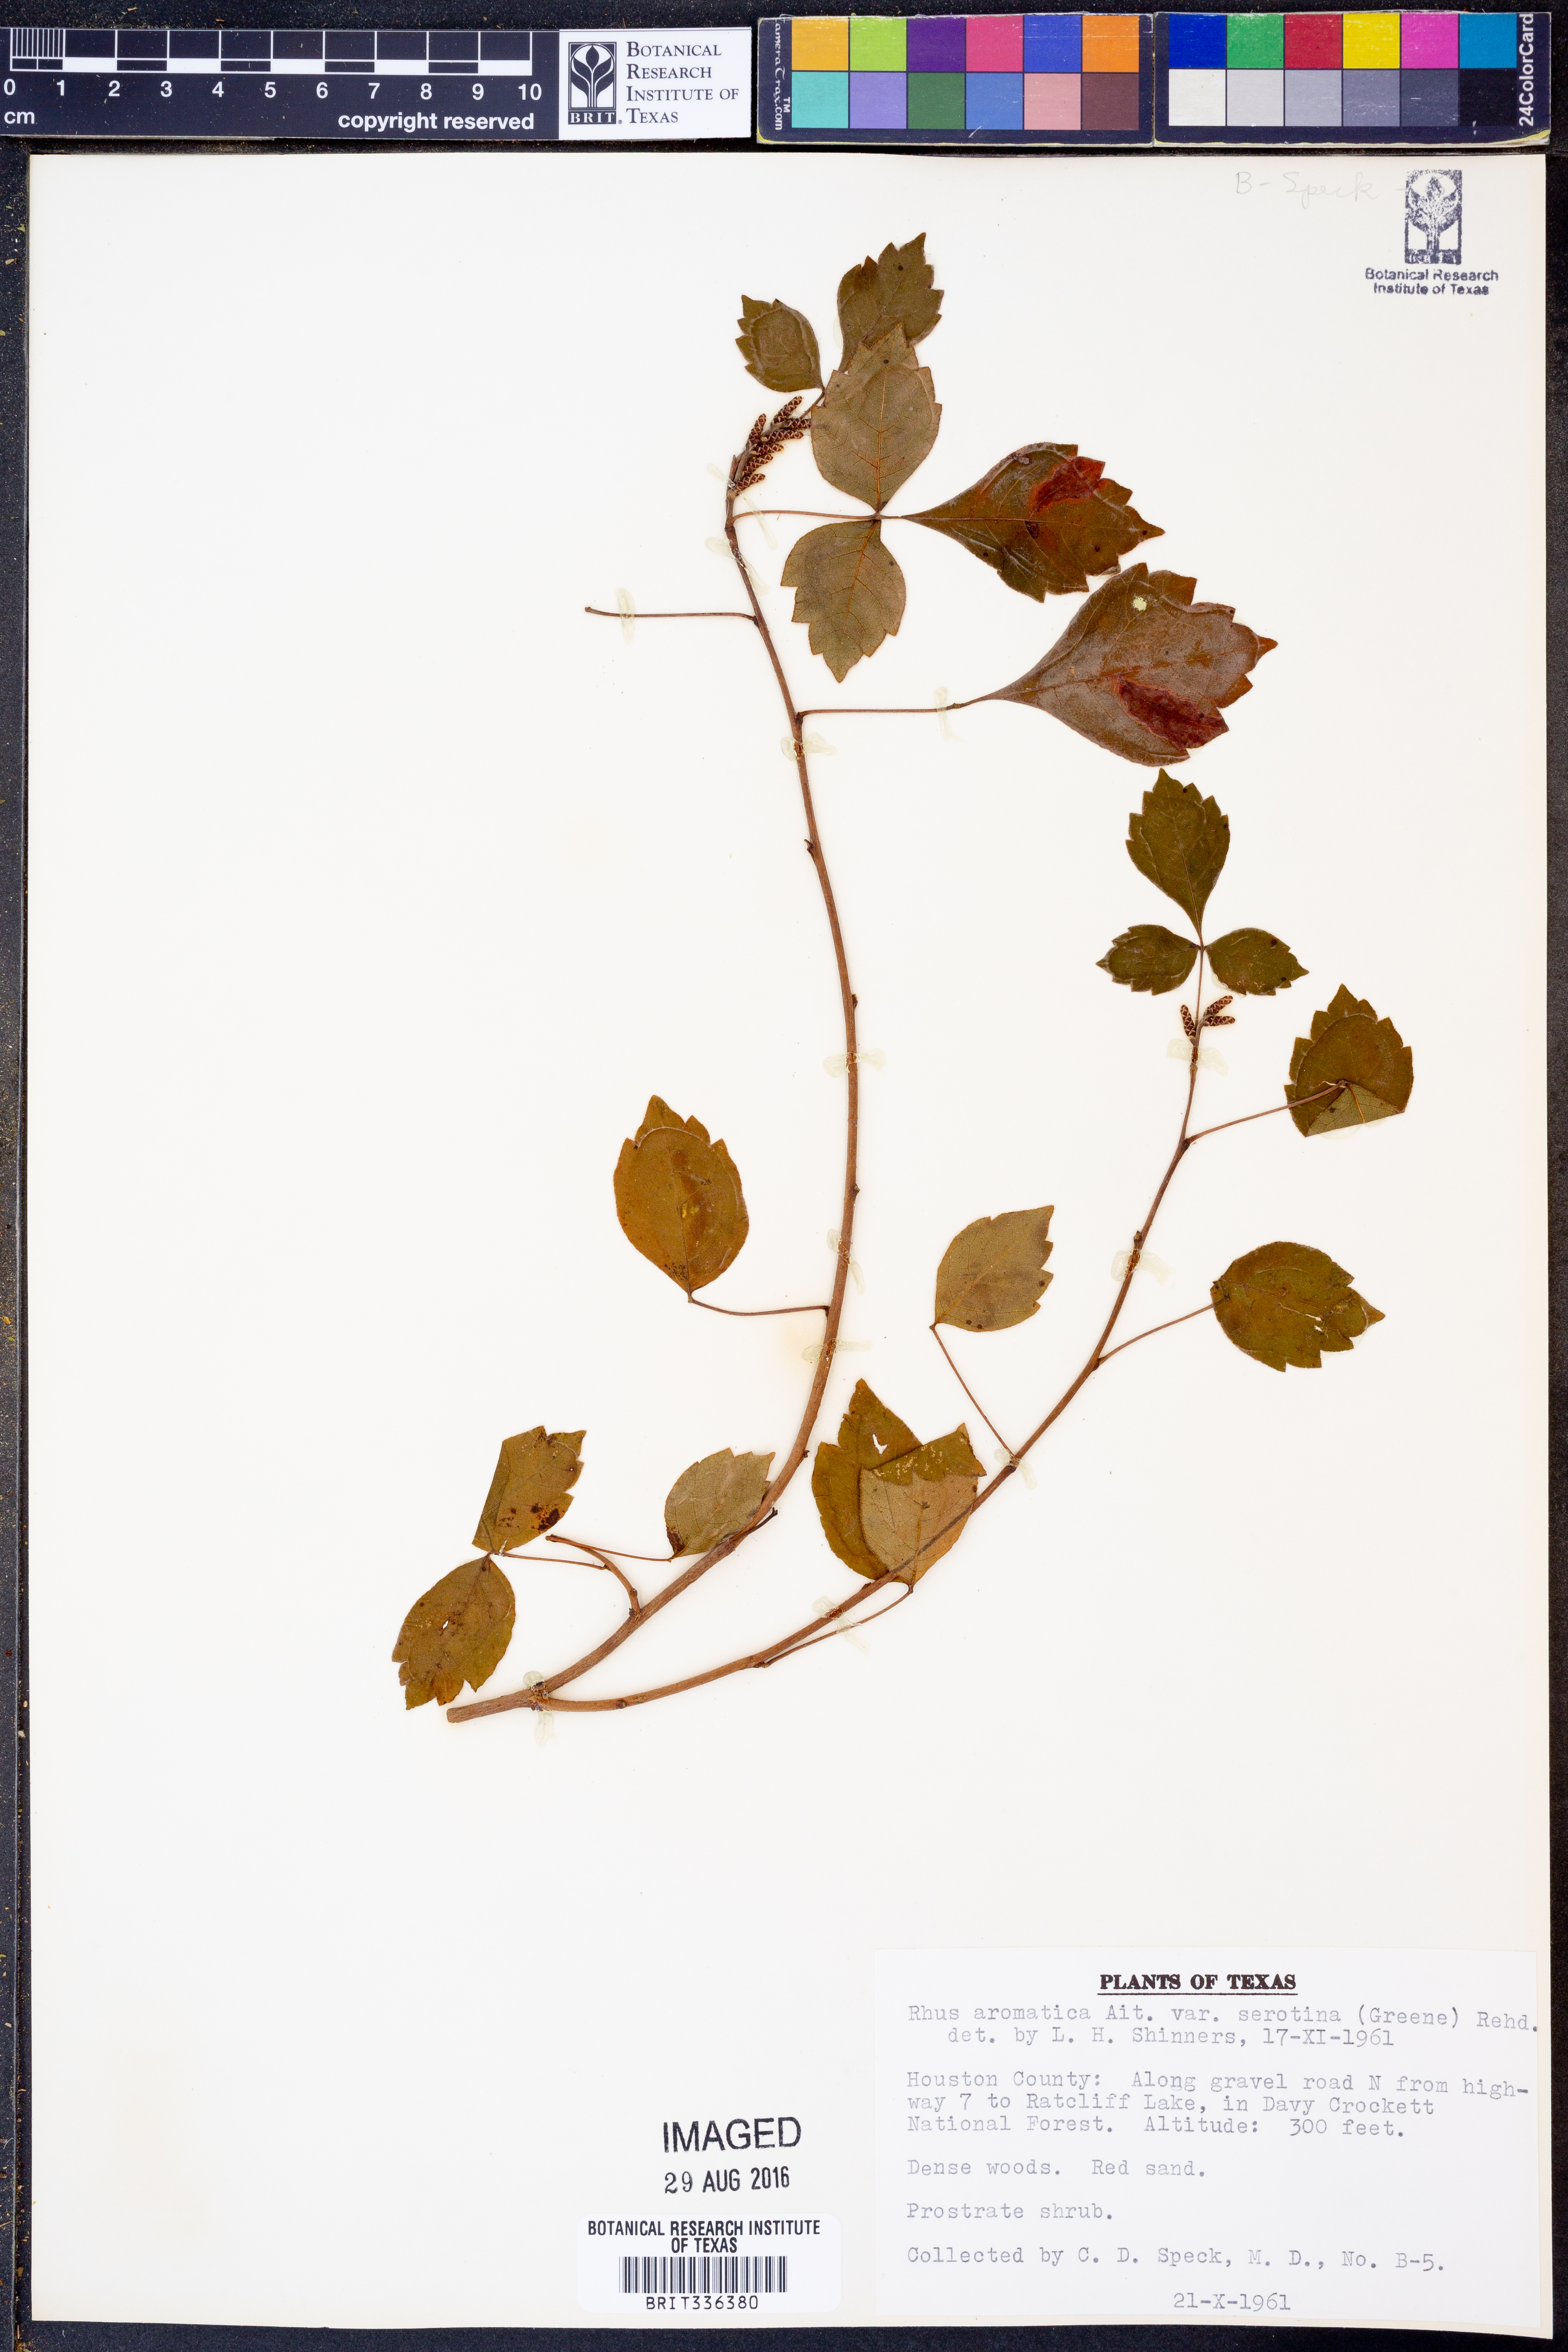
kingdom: Plantae
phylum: Tracheophyta
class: Magnoliopsida
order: Sapindales
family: Anacardiaceae
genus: Rhus
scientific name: Rhus aromatica
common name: Aromatic sumac
